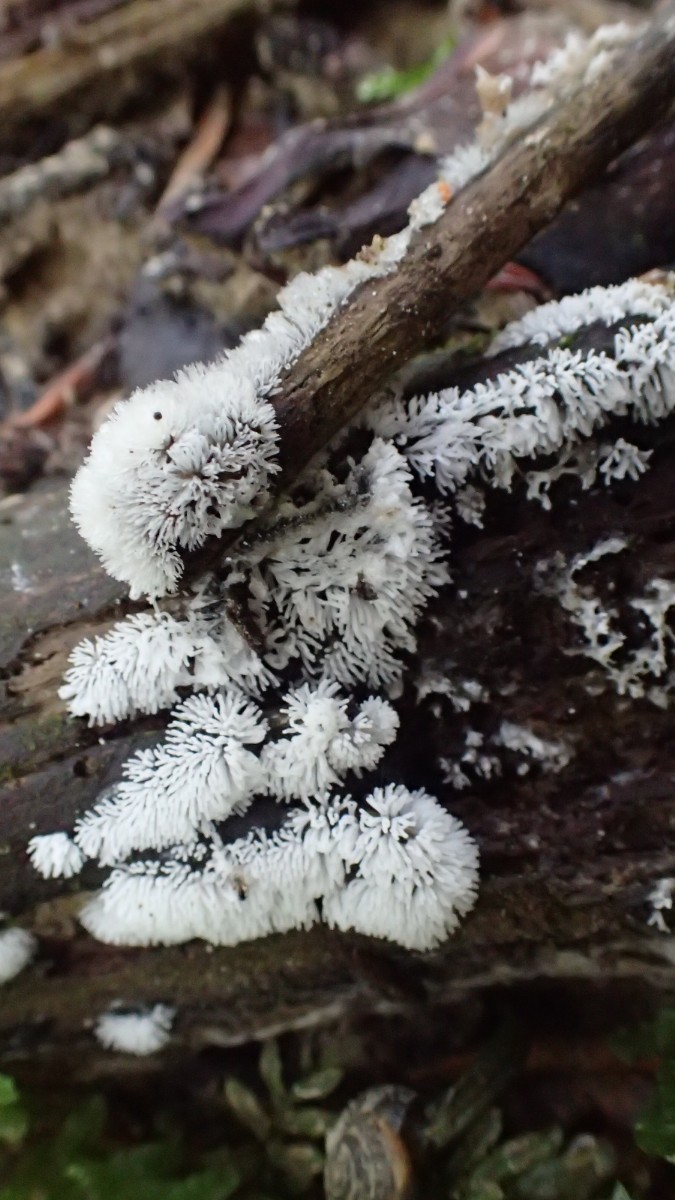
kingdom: Protozoa
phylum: Mycetozoa
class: Protosteliomycetes
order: Ceratiomyxales
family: Ceratiomyxaceae
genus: Ceratiomyxa
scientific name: Ceratiomyxa fruticulosa
